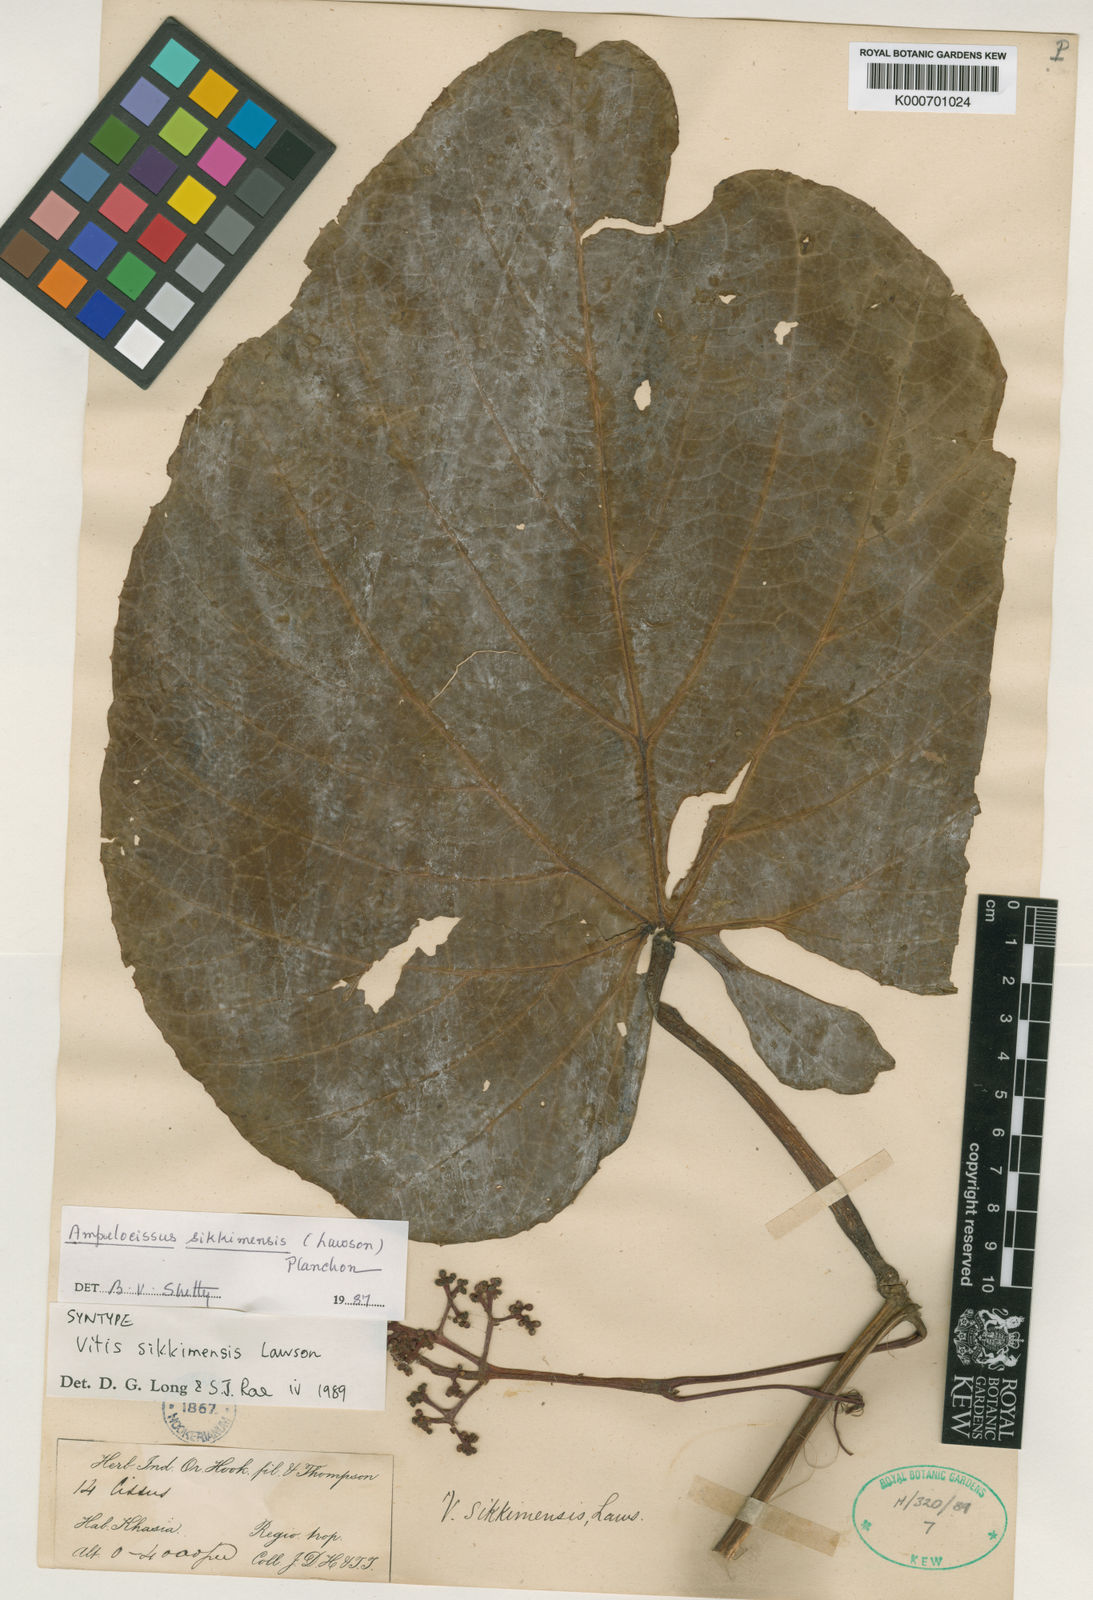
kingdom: Plantae
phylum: Tracheophyta
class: Magnoliopsida
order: Vitales
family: Vitaceae
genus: Ampelocissus
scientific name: Ampelocissus sikkimensis
